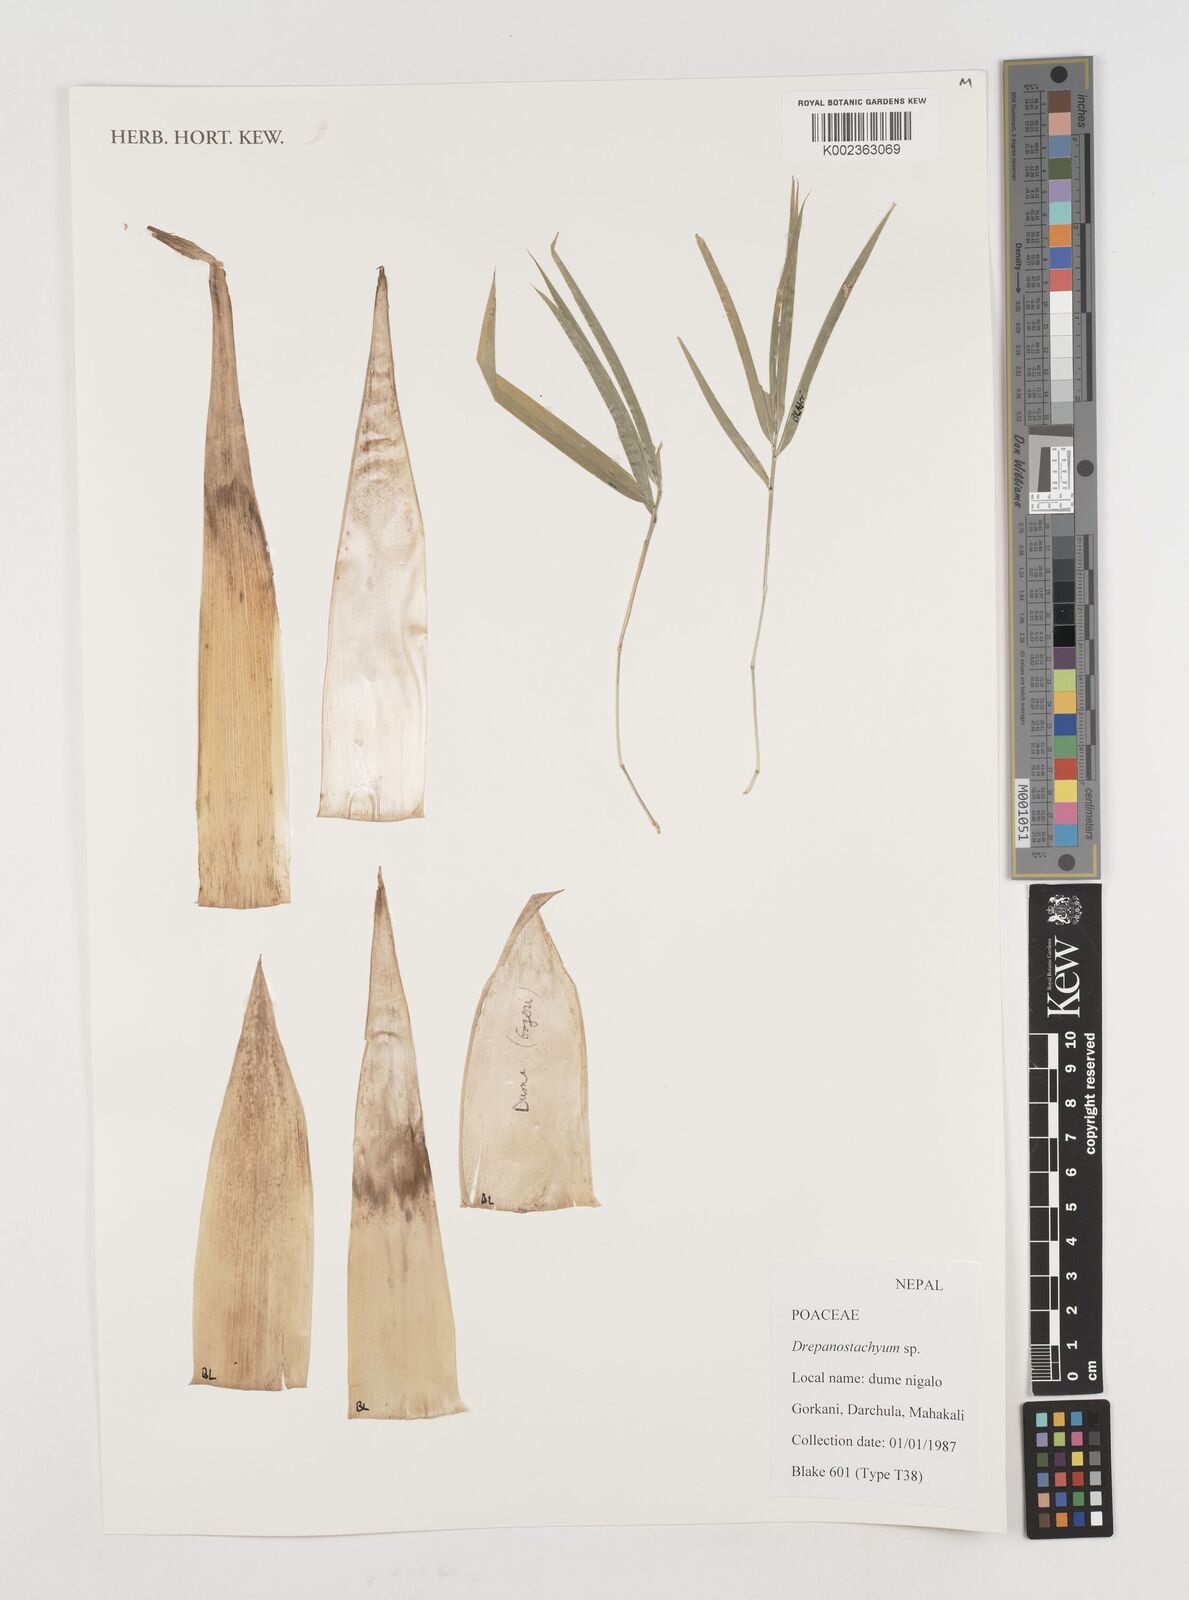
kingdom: Plantae
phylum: Tracheophyta
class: Liliopsida
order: Poales
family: Poaceae
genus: Drepanostachyum
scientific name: Drepanostachyum
